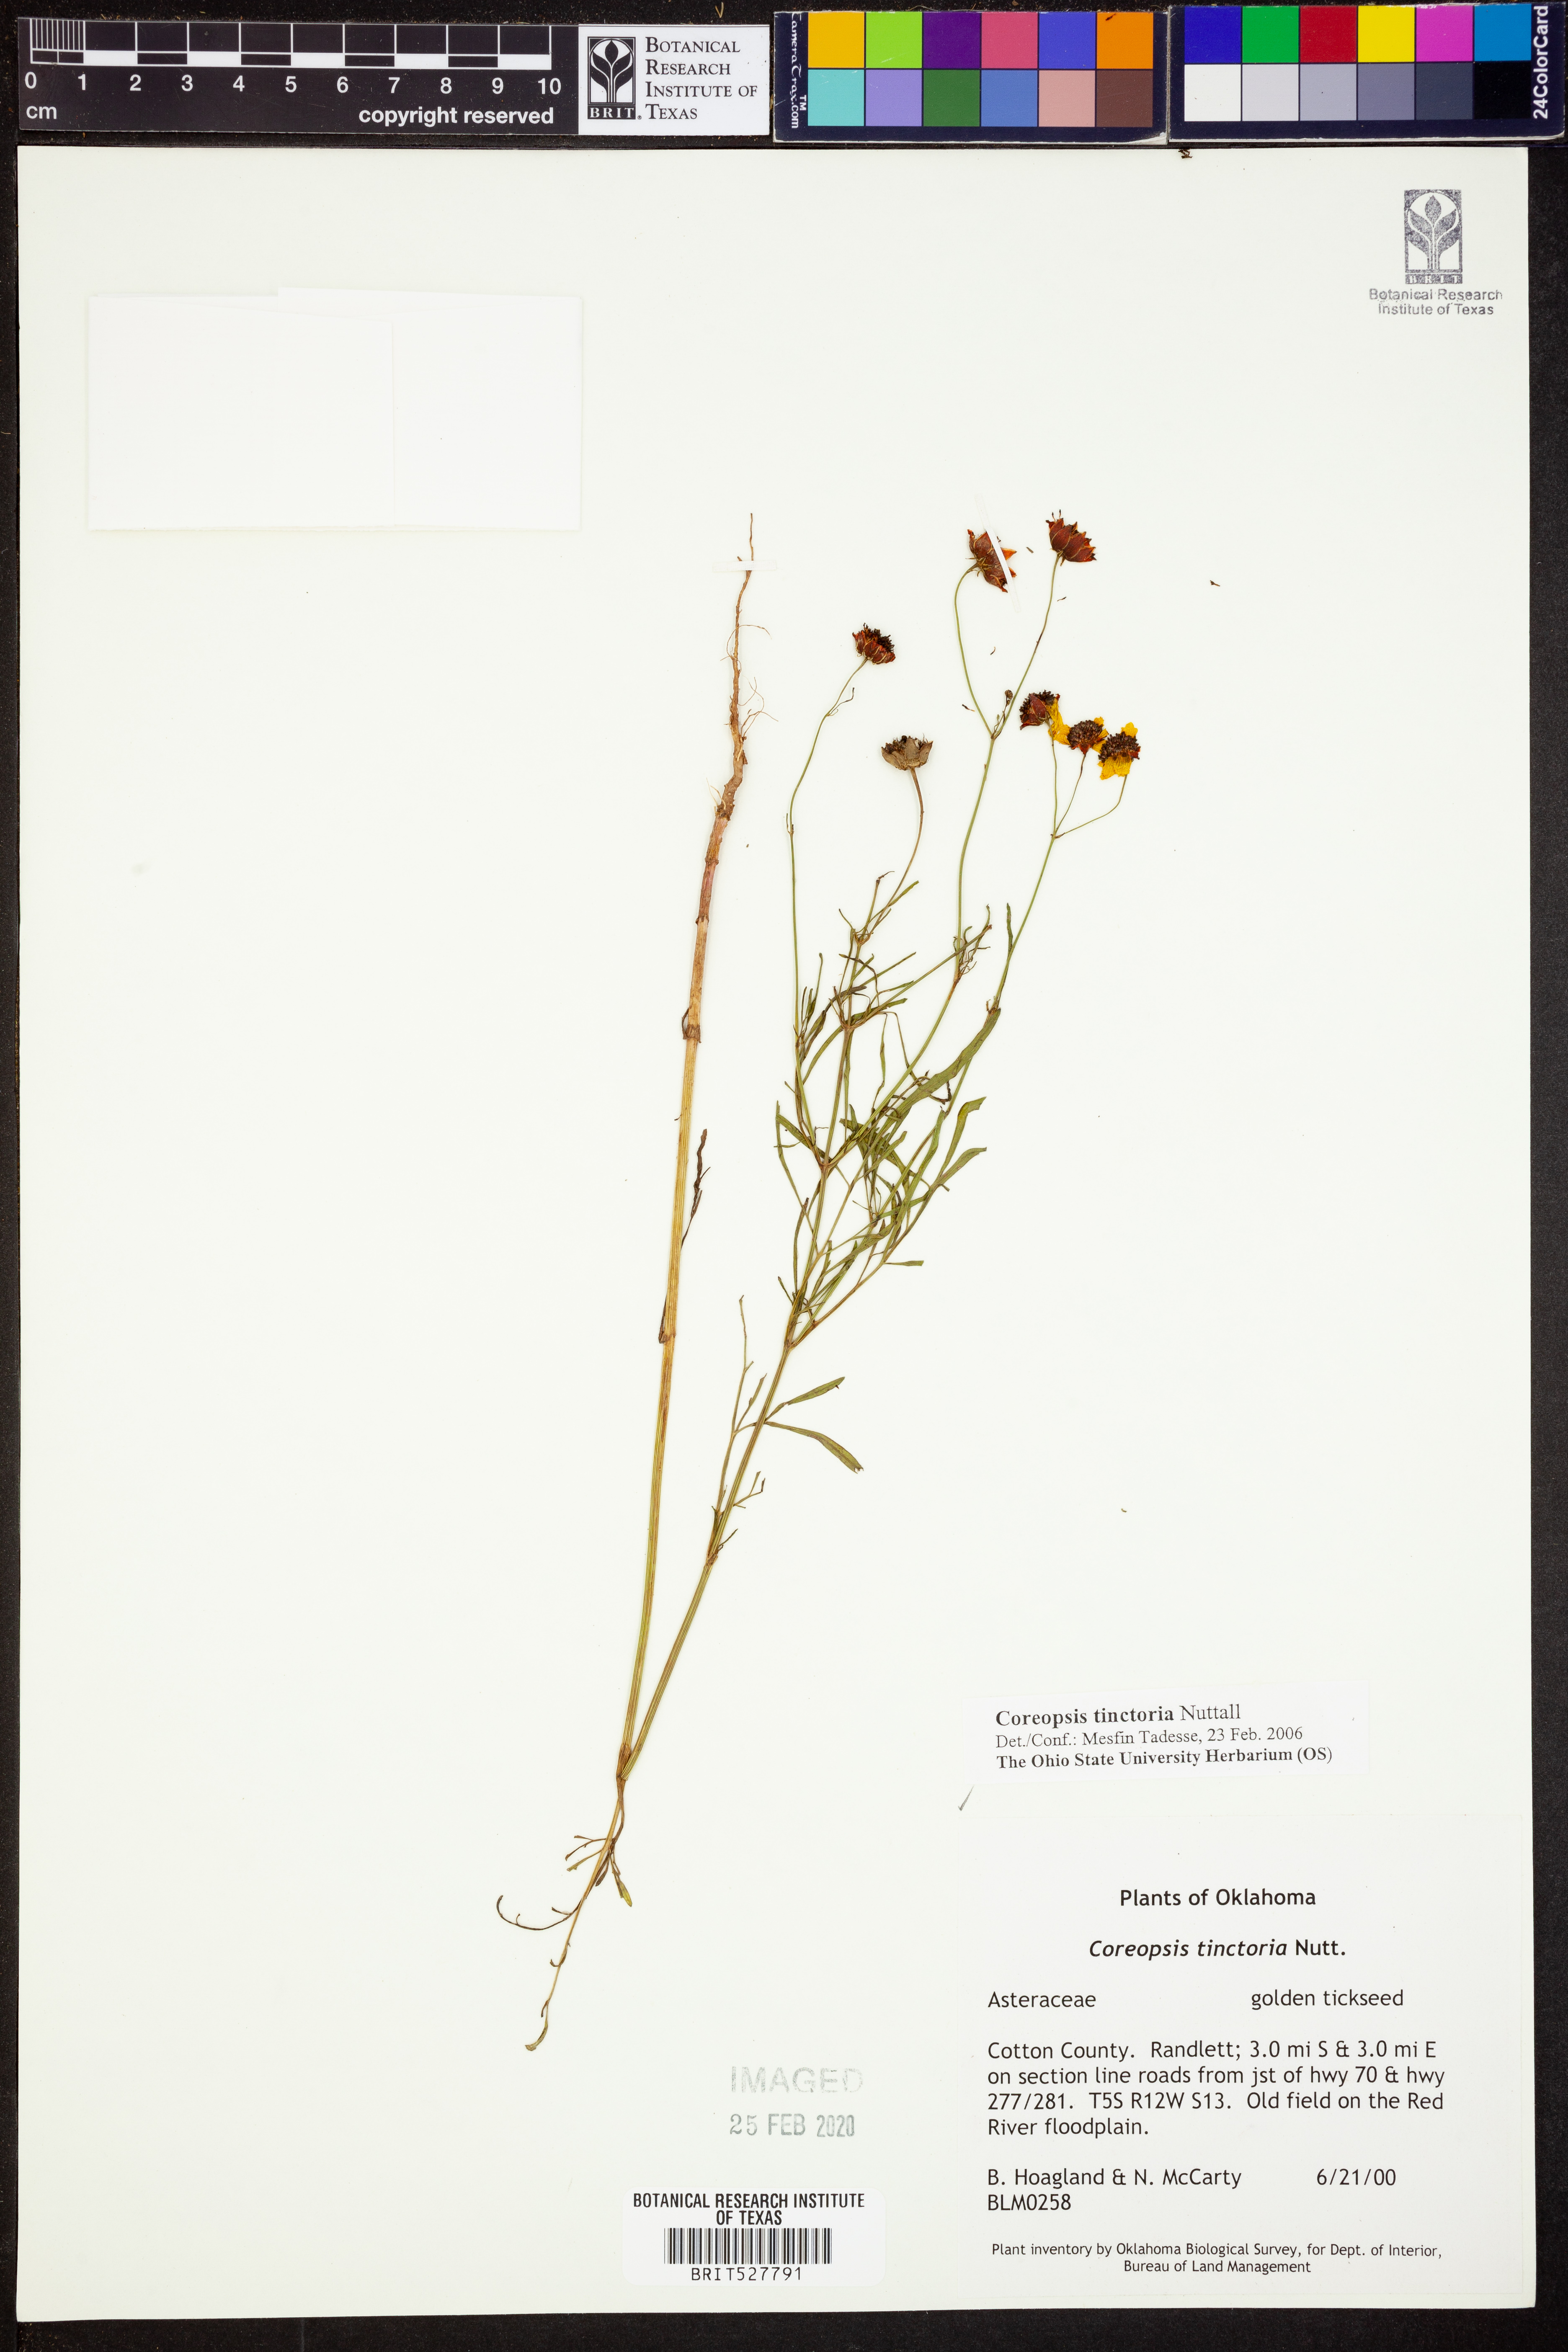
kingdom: Plantae
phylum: Tracheophyta
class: Magnoliopsida
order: Asterales
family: Asteraceae
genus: Coreopsis
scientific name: Coreopsis tinctoria
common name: Garden tickseed
